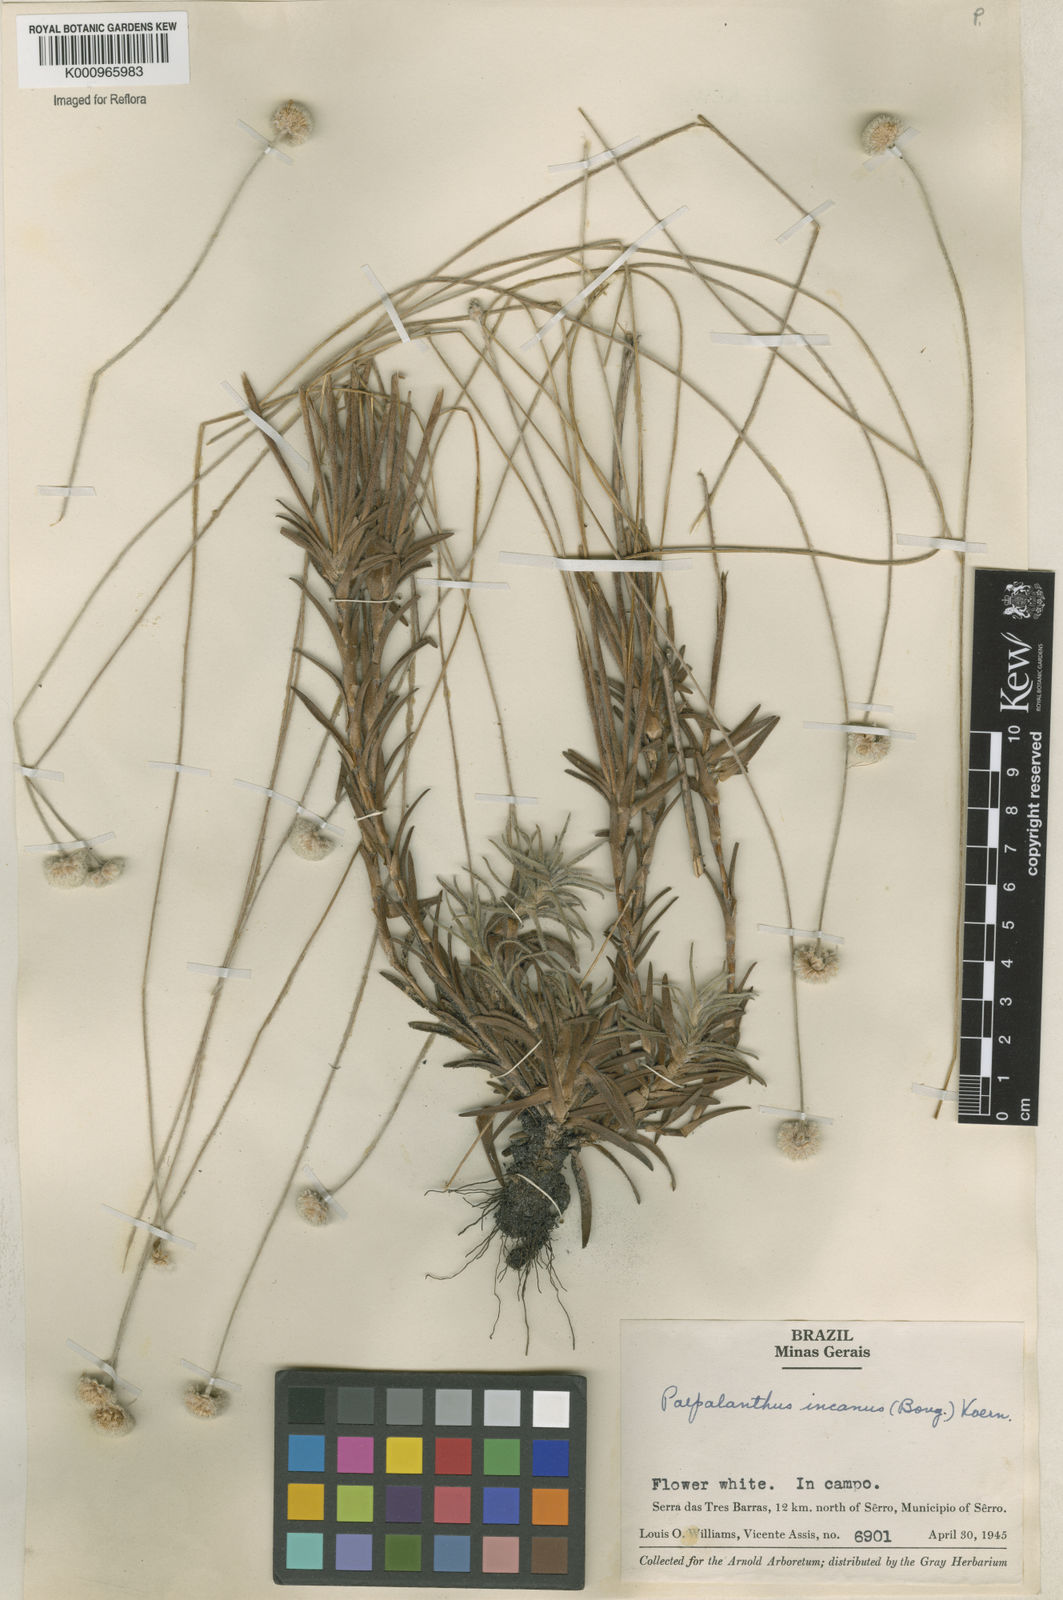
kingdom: Plantae
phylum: Tracheophyta
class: Liliopsida
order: Poales
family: Eriocaulaceae
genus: Paepalanthus
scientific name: Paepalanthus
